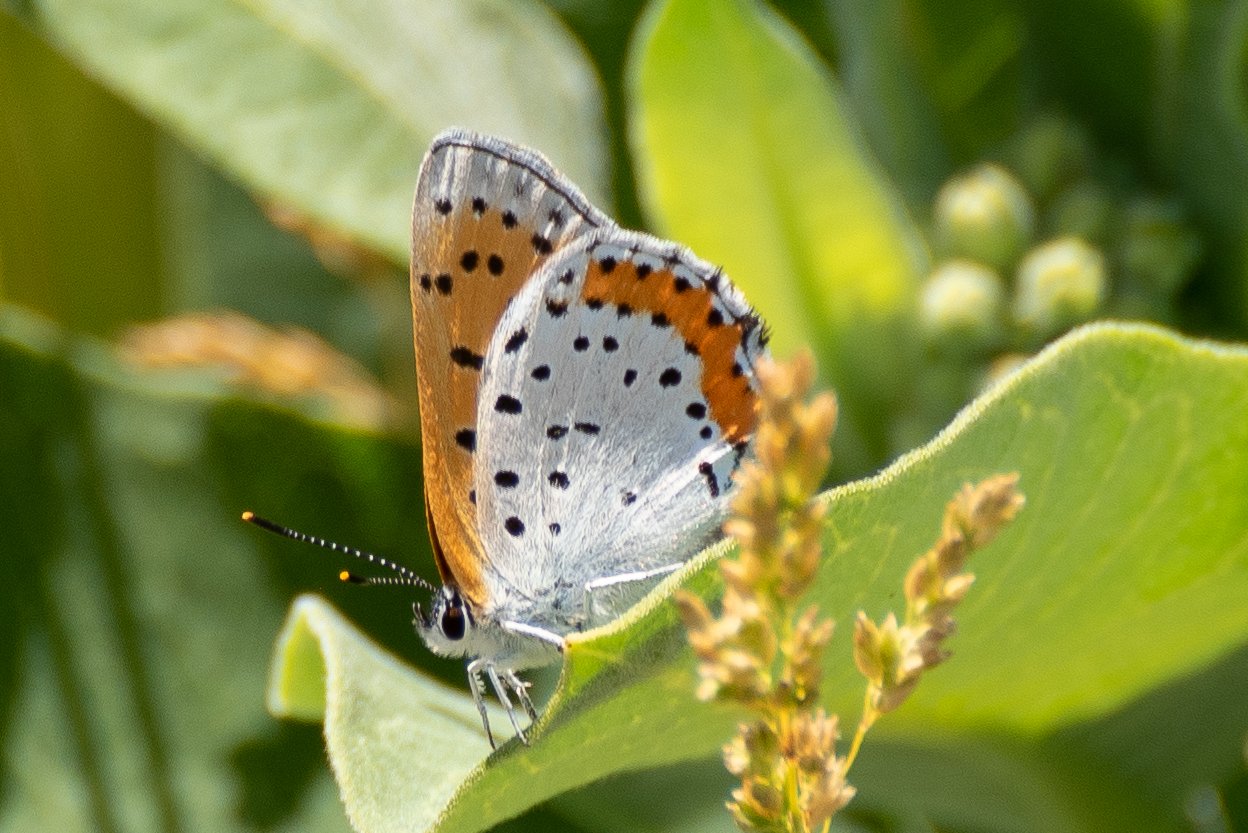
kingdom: Animalia
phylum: Arthropoda
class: Insecta
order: Lepidoptera
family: Sesiidae
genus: Sesia
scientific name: Sesia Lycaena hyllus
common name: Bronze Copper
